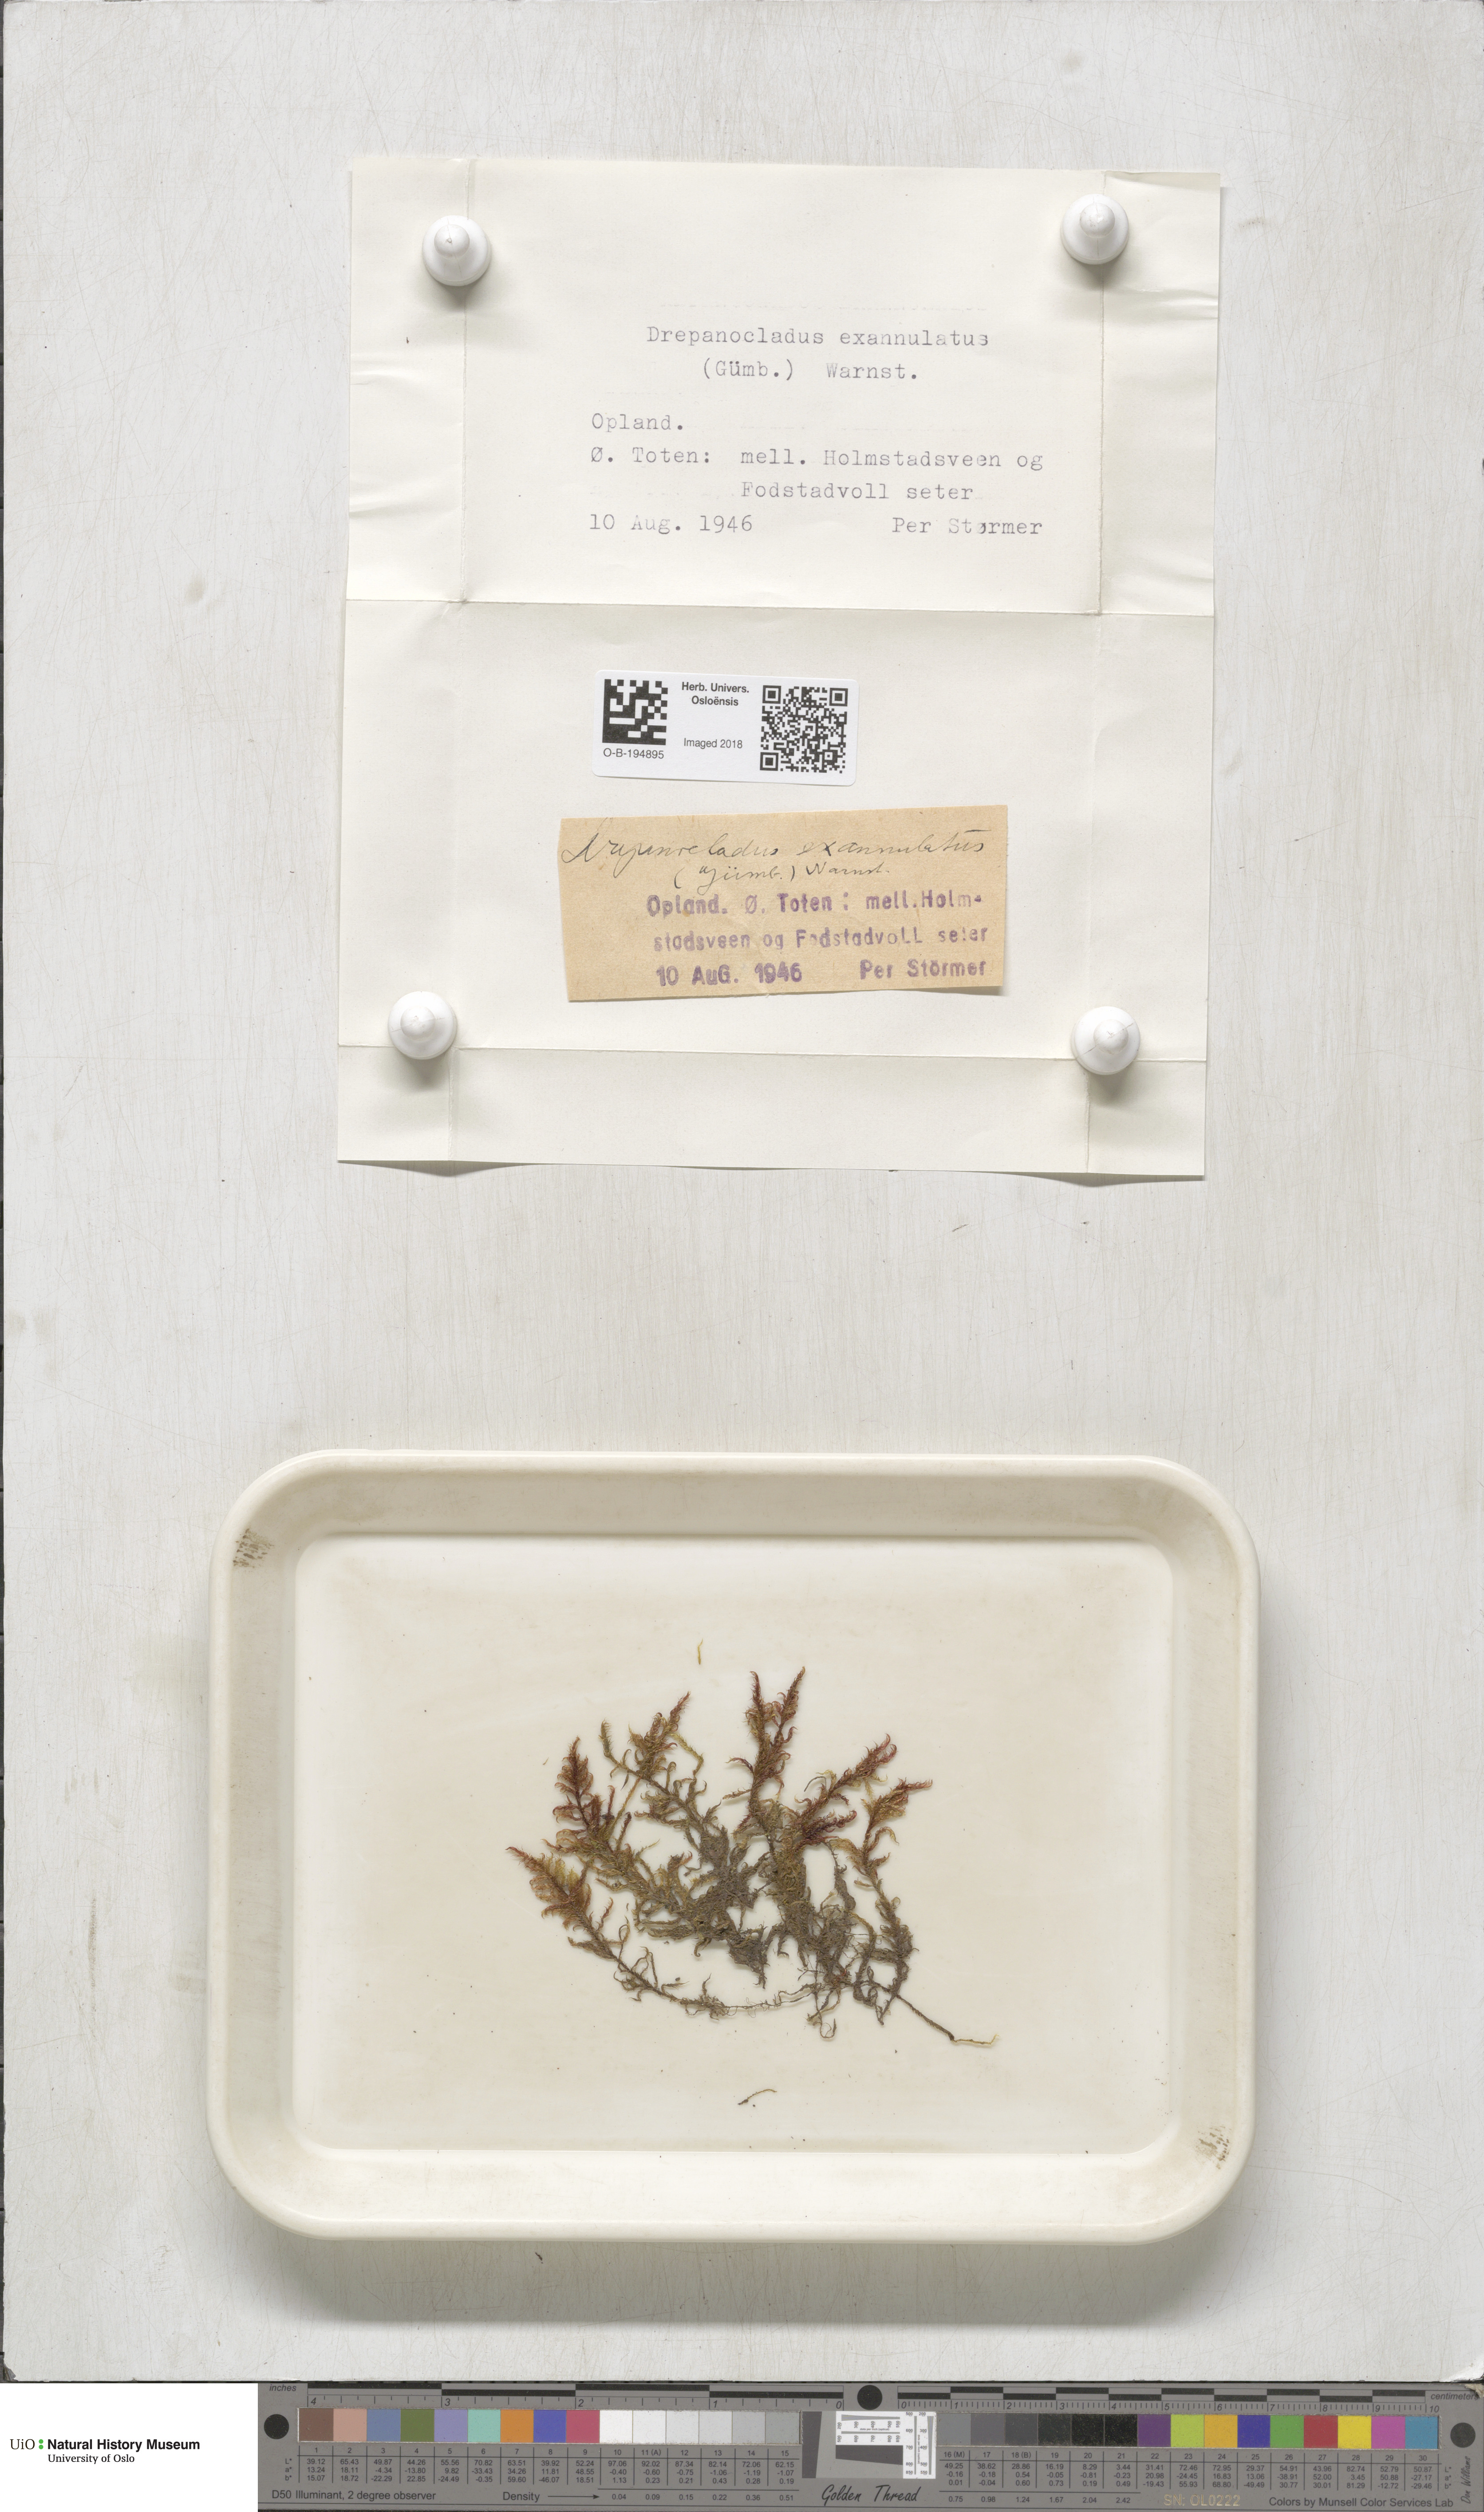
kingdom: Plantae
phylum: Bryophyta
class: Bryopsida
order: Hypnales
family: Calliergonaceae
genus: Sarmentypnum
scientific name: Sarmentypnum exannulatum
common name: Ringless spoon moss
